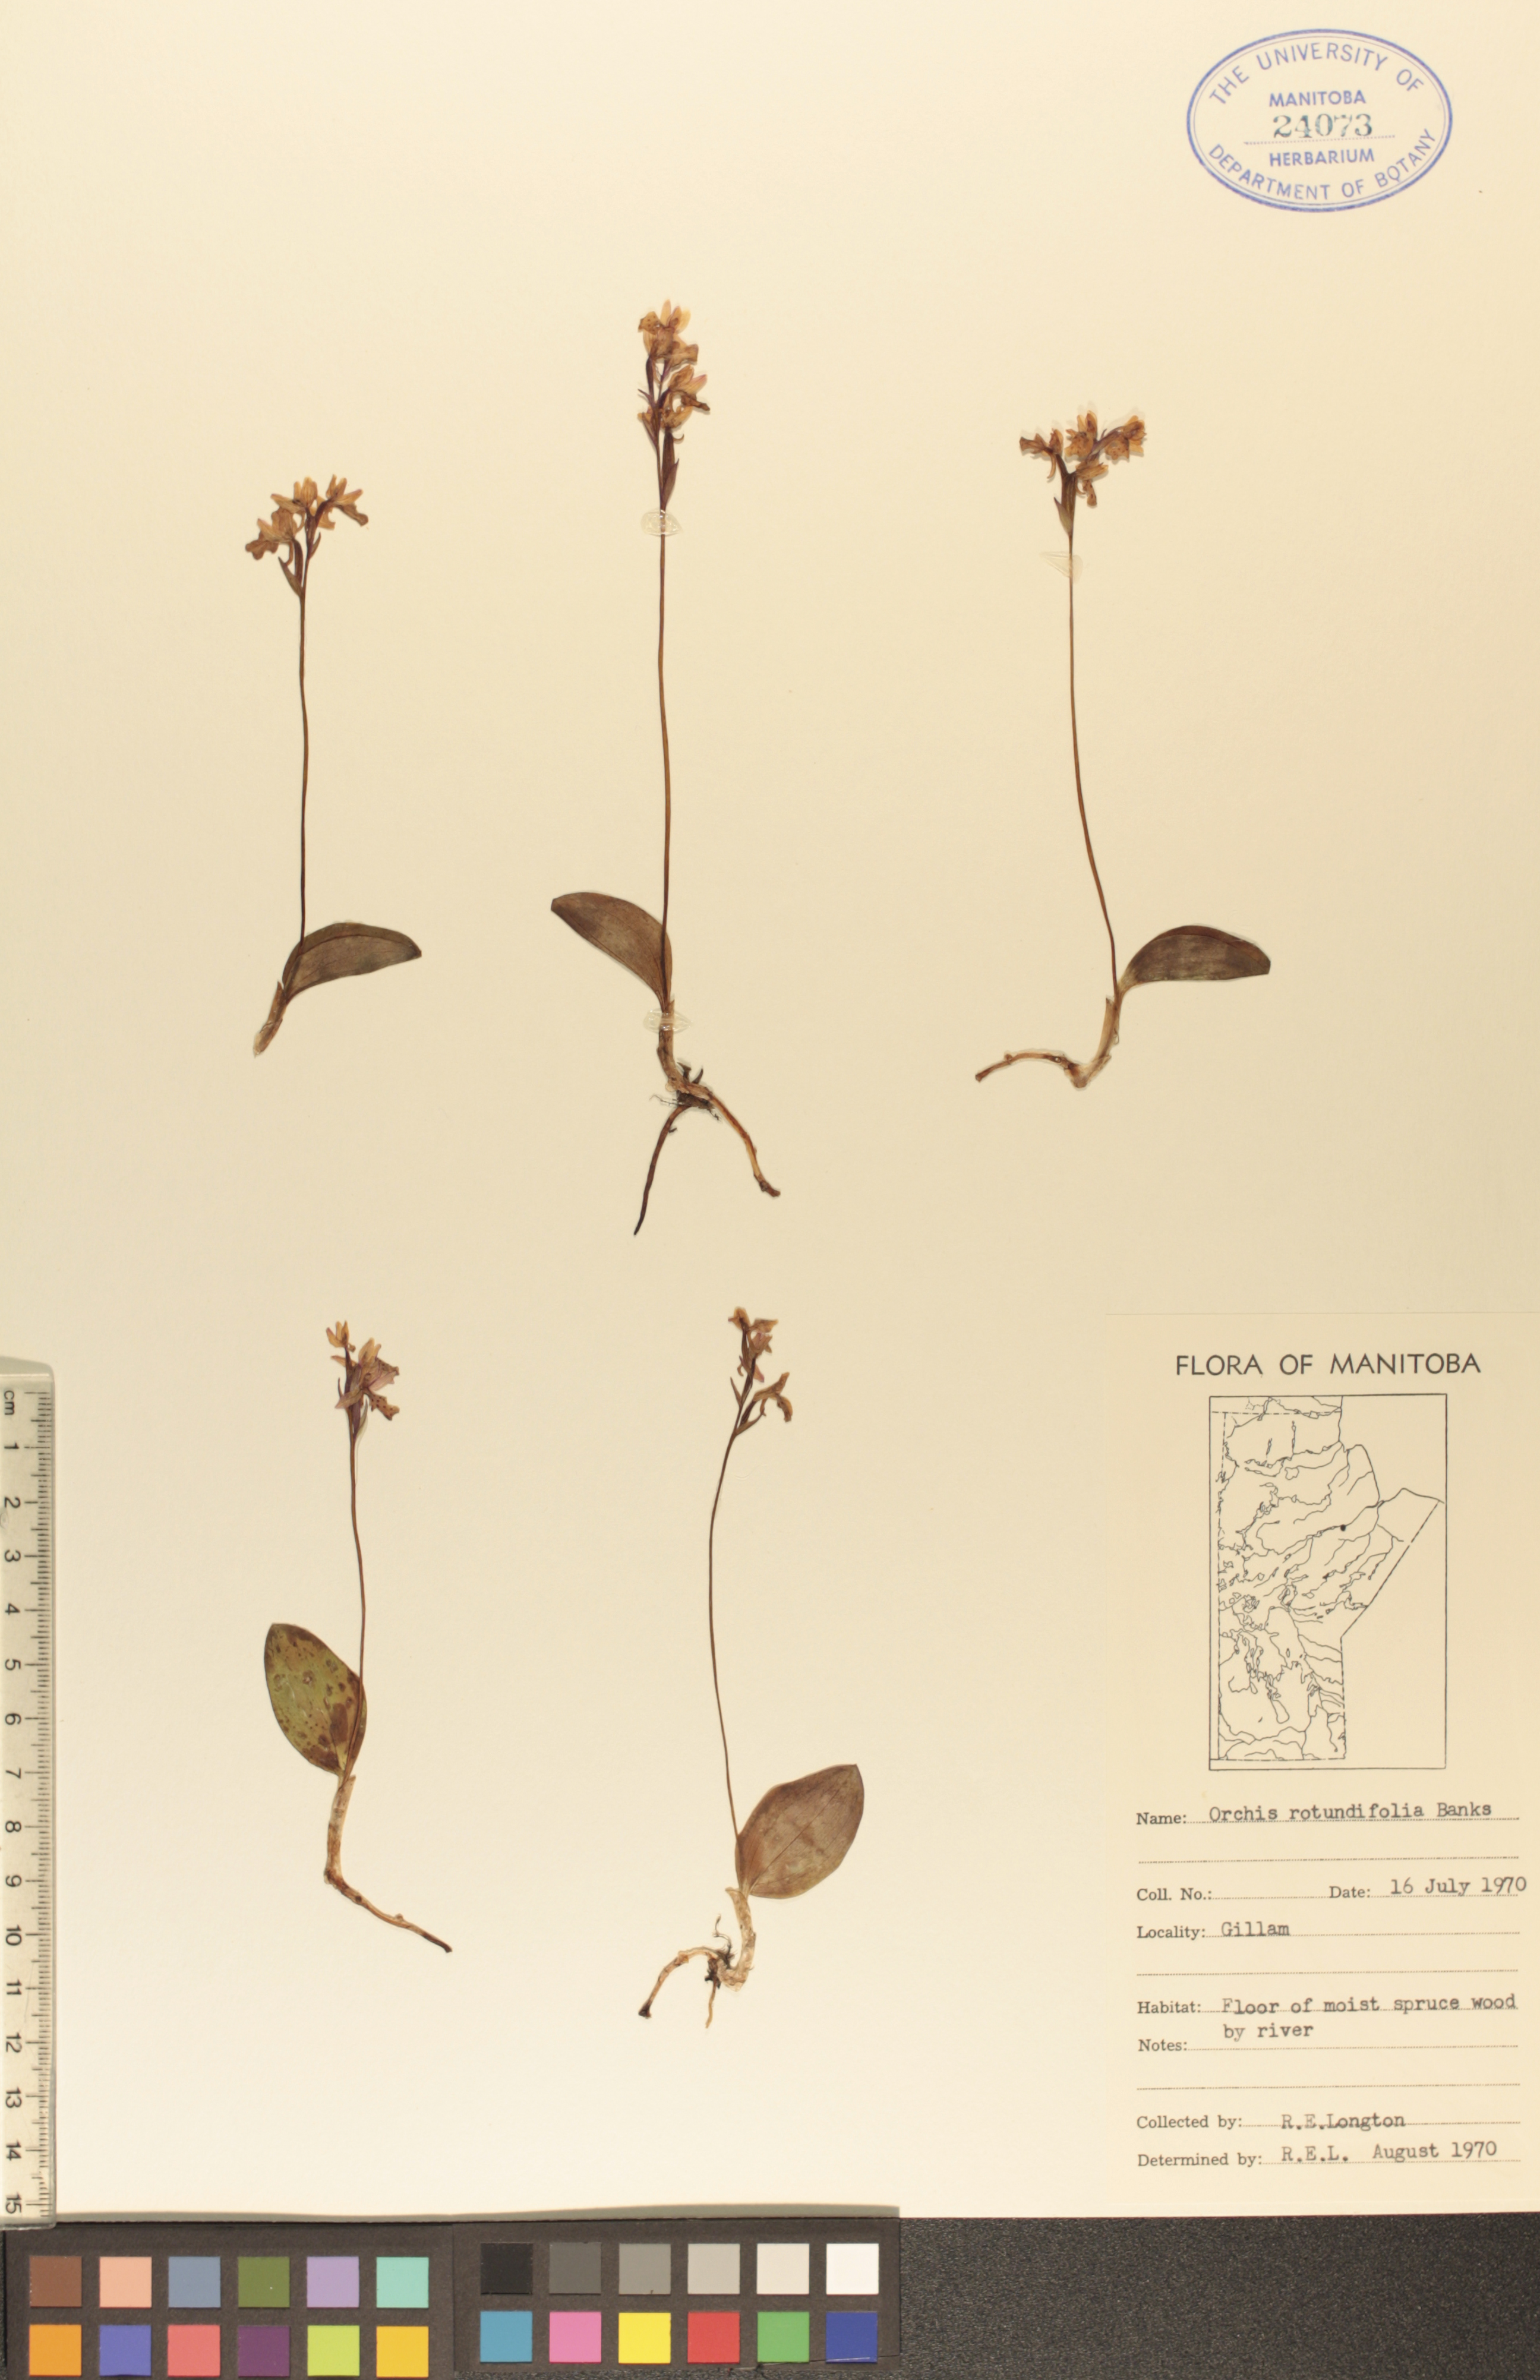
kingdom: Plantae
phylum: Tracheophyta
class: Liliopsida
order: Asparagales
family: Orchidaceae
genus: Galearis
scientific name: Galearis rotundifolia
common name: One-leaved orchis
